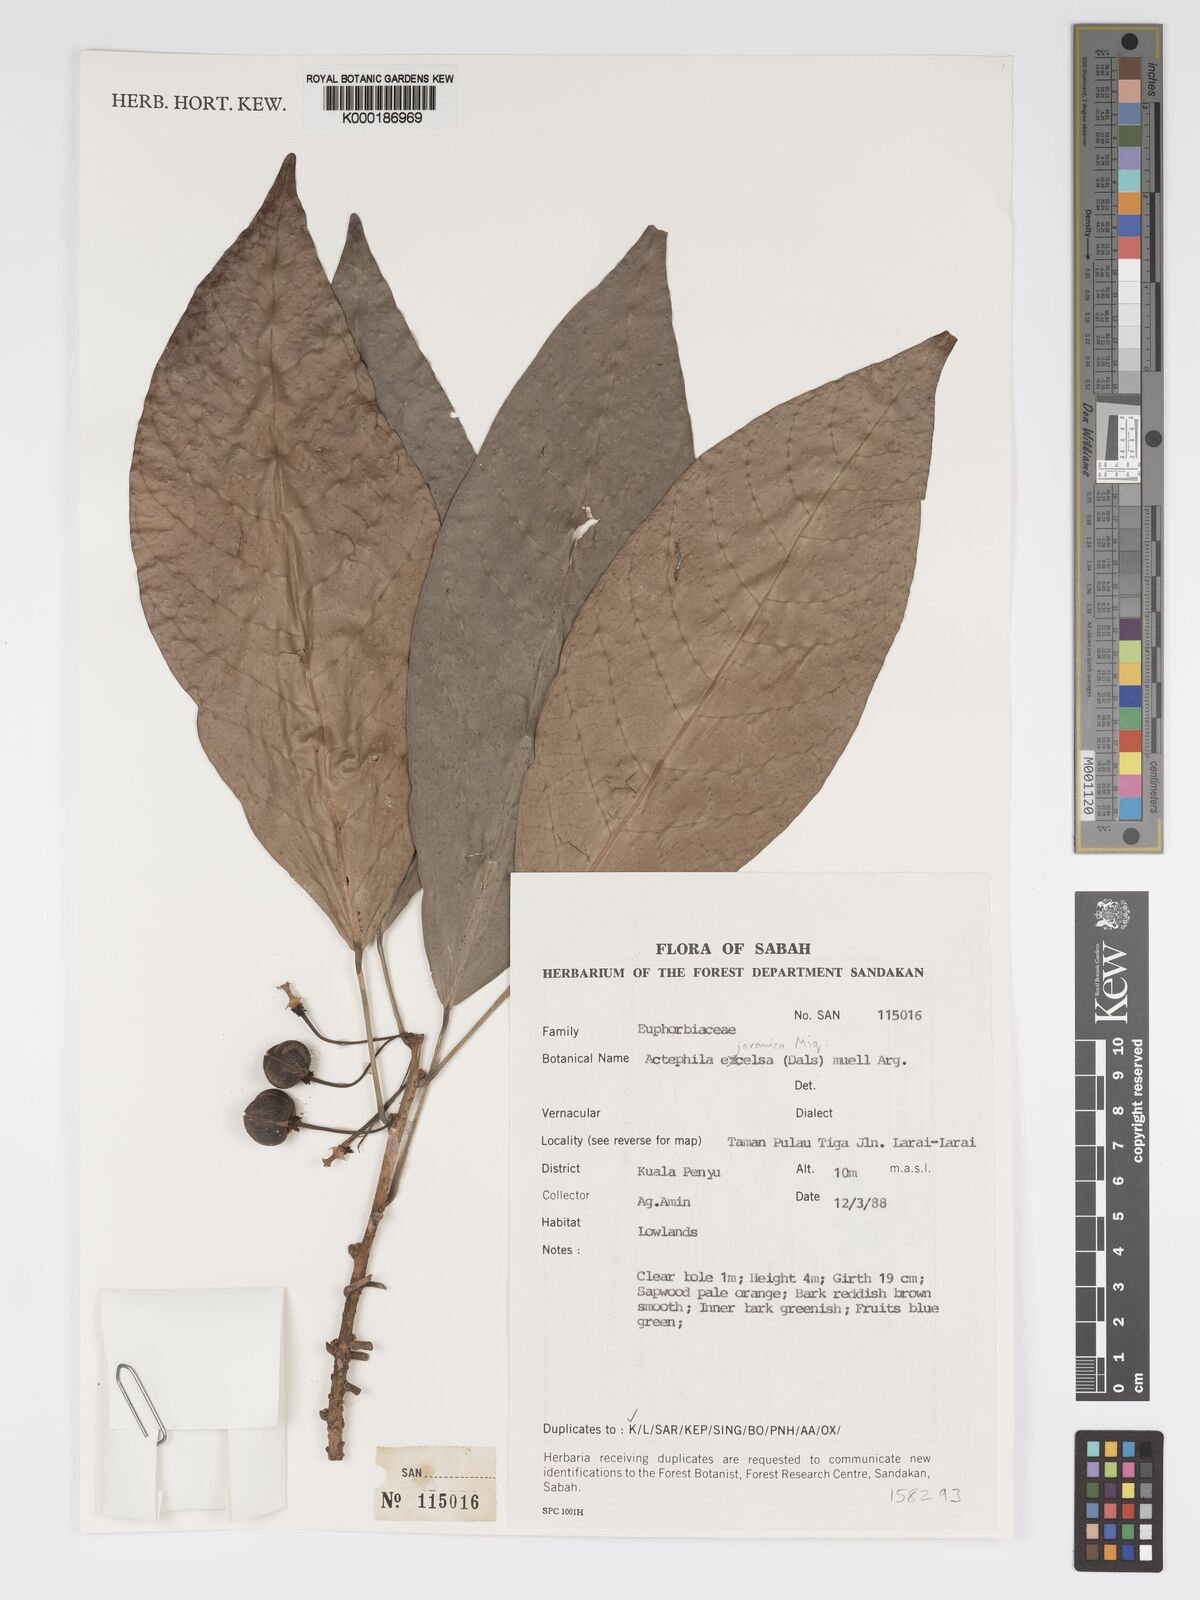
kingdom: Plantae
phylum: Tracheophyta
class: Magnoliopsida
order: Malpighiales
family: Phyllanthaceae
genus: Actephila
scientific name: Actephila
